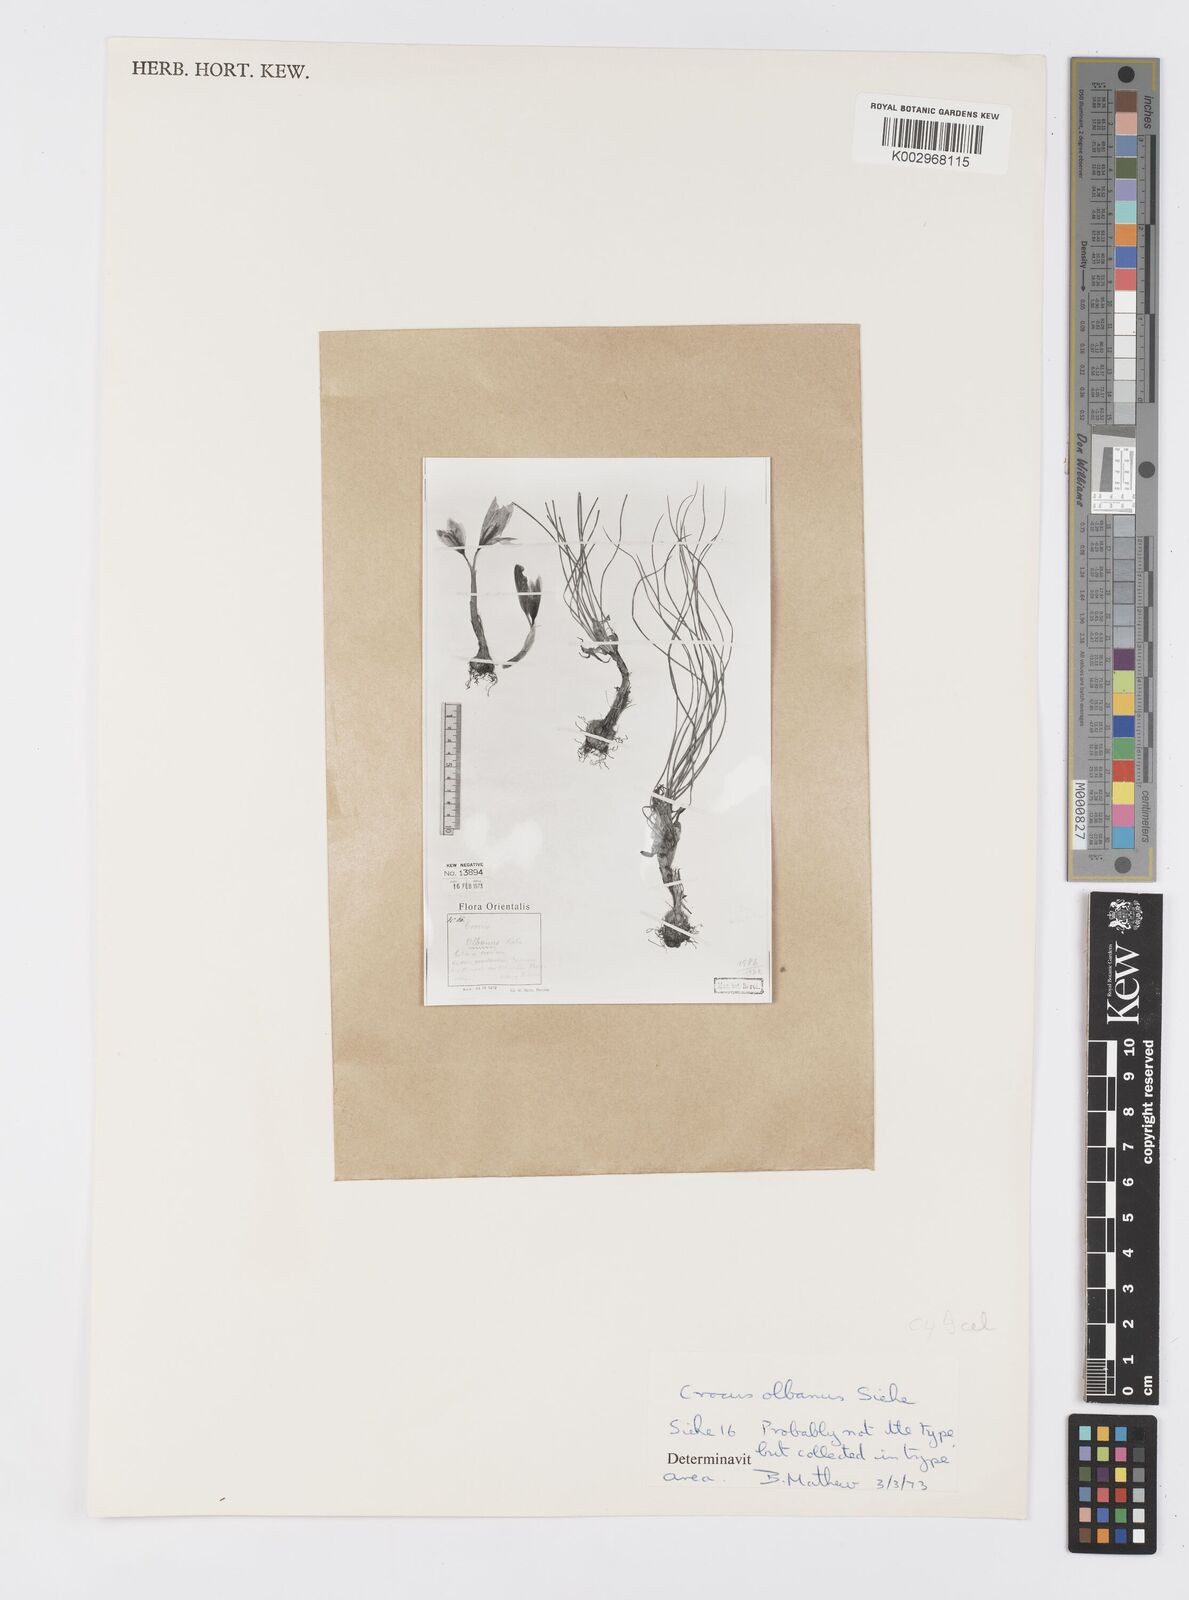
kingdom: Plantae
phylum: Tracheophyta
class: Liliopsida
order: Asparagales
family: Iridaceae
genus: Crocus
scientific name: Crocus
